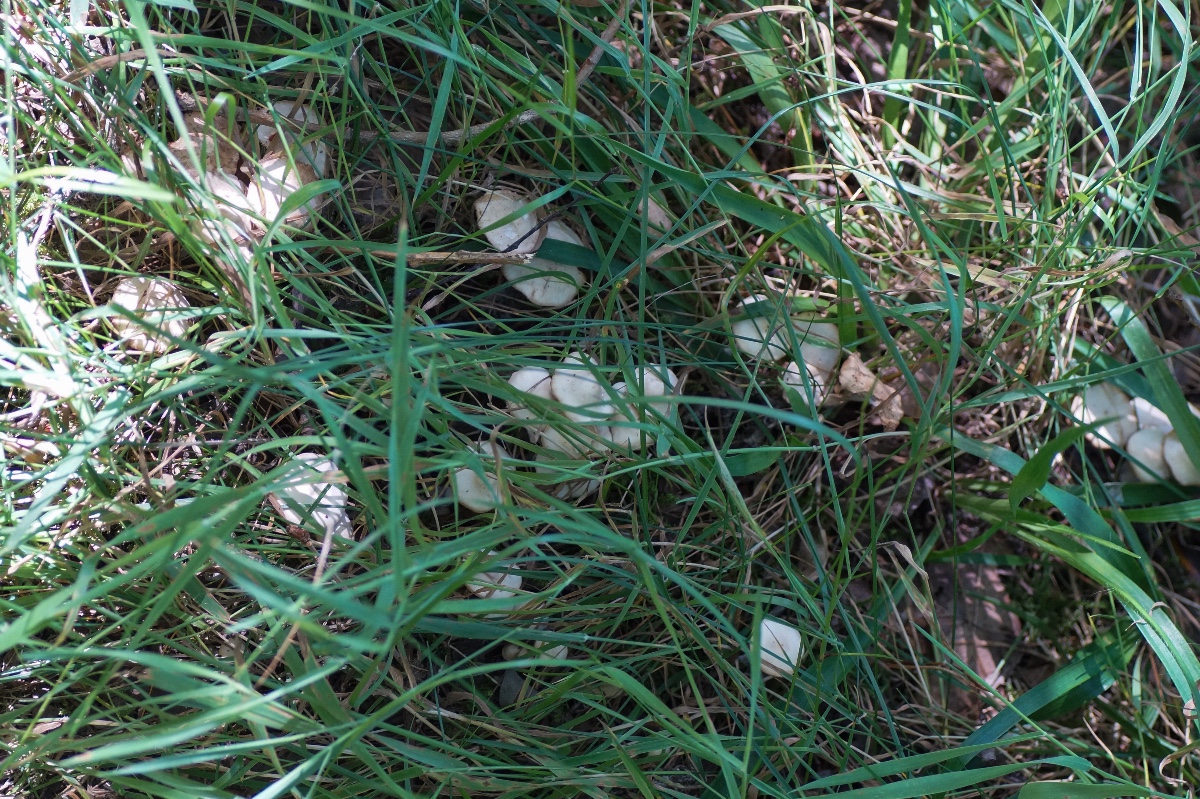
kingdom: Fungi
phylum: Basidiomycota
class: Agaricomycetes
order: Agaricales
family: Omphalotaceae
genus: Collybiopsis
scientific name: Collybiopsis confluens
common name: knippe-fladhat
